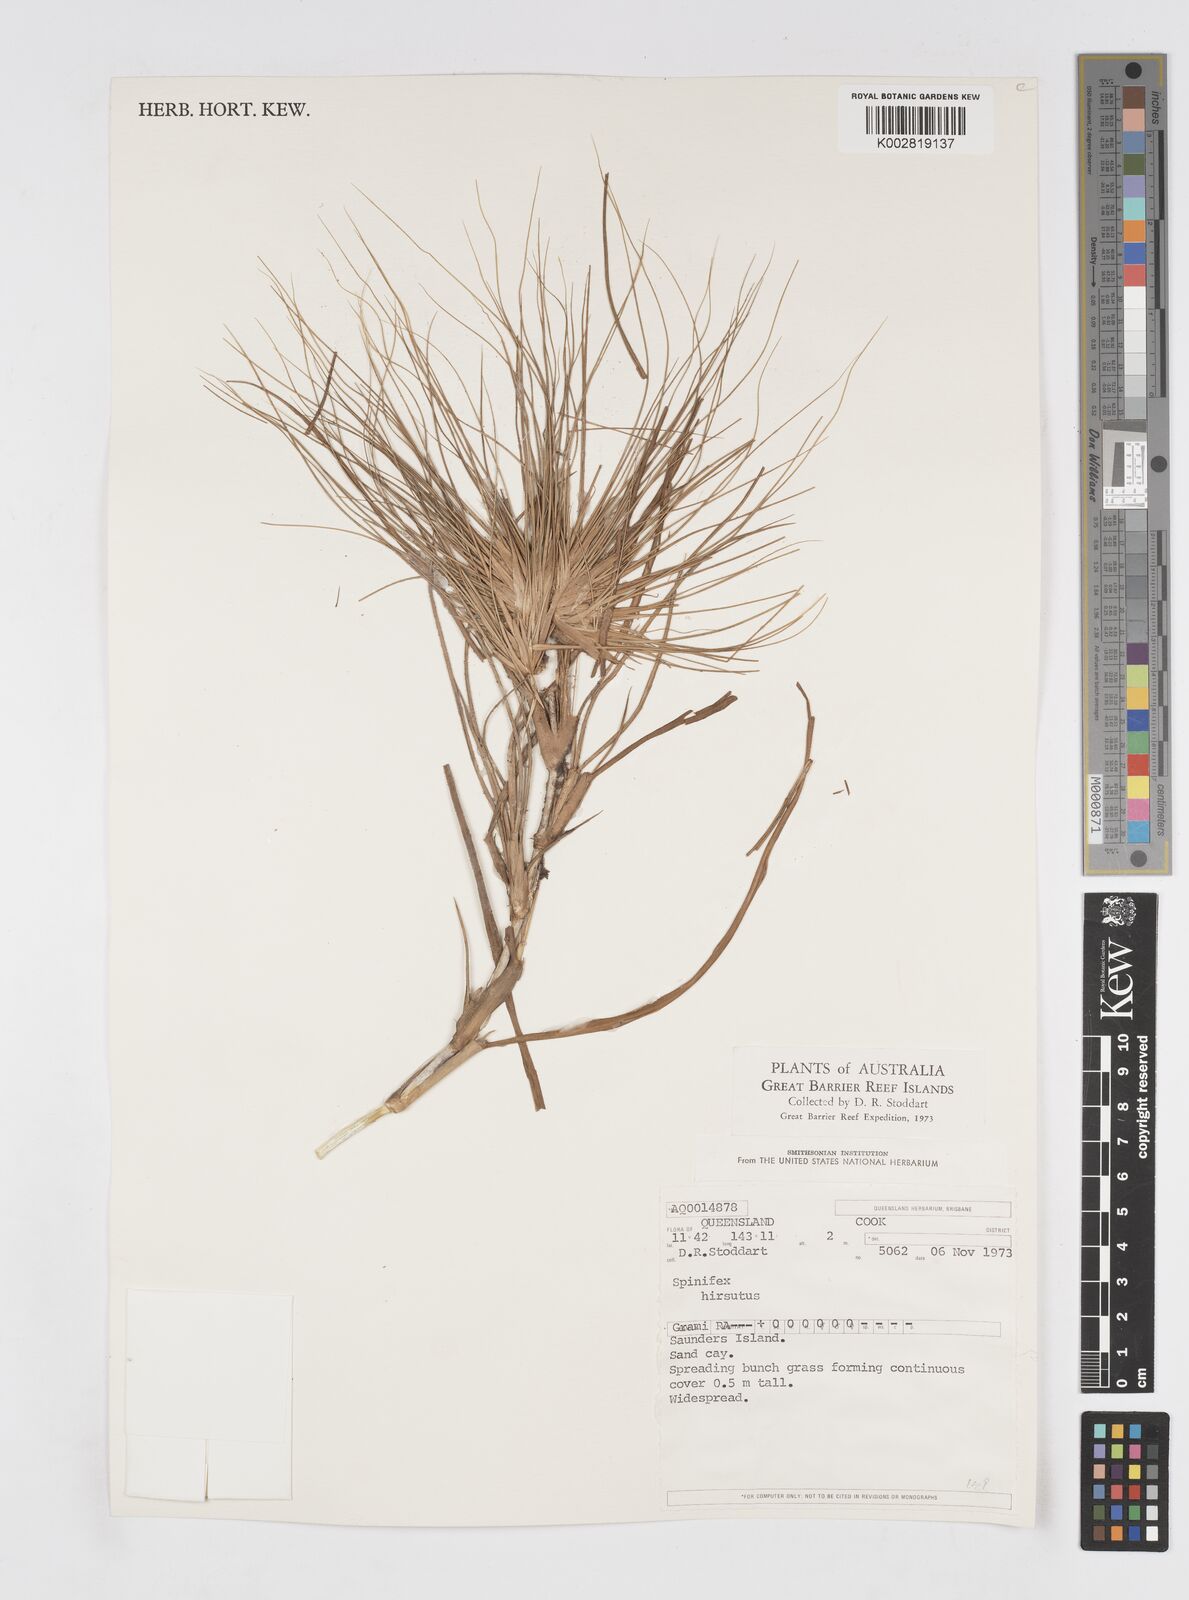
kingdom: Plantae
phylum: Tracheophyta
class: Liliopsida
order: Poales
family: Poaceae
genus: Spinifex
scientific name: Spinifex hirsutus
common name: Hairy spinifex
